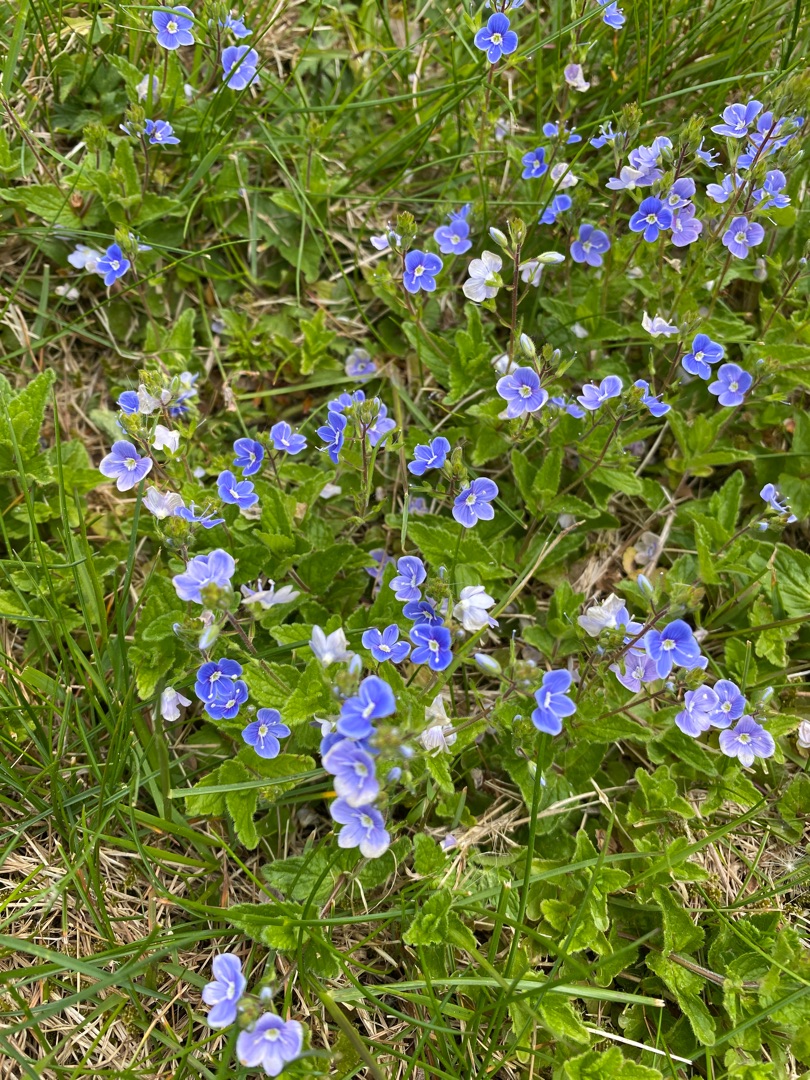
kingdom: Plantae
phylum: Tracheophyta
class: Magnoliopsida
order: Lamiales
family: Plantaginaceae
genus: Veronica
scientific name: Veronica chamaedrys
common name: Tveskægget ærenpris
